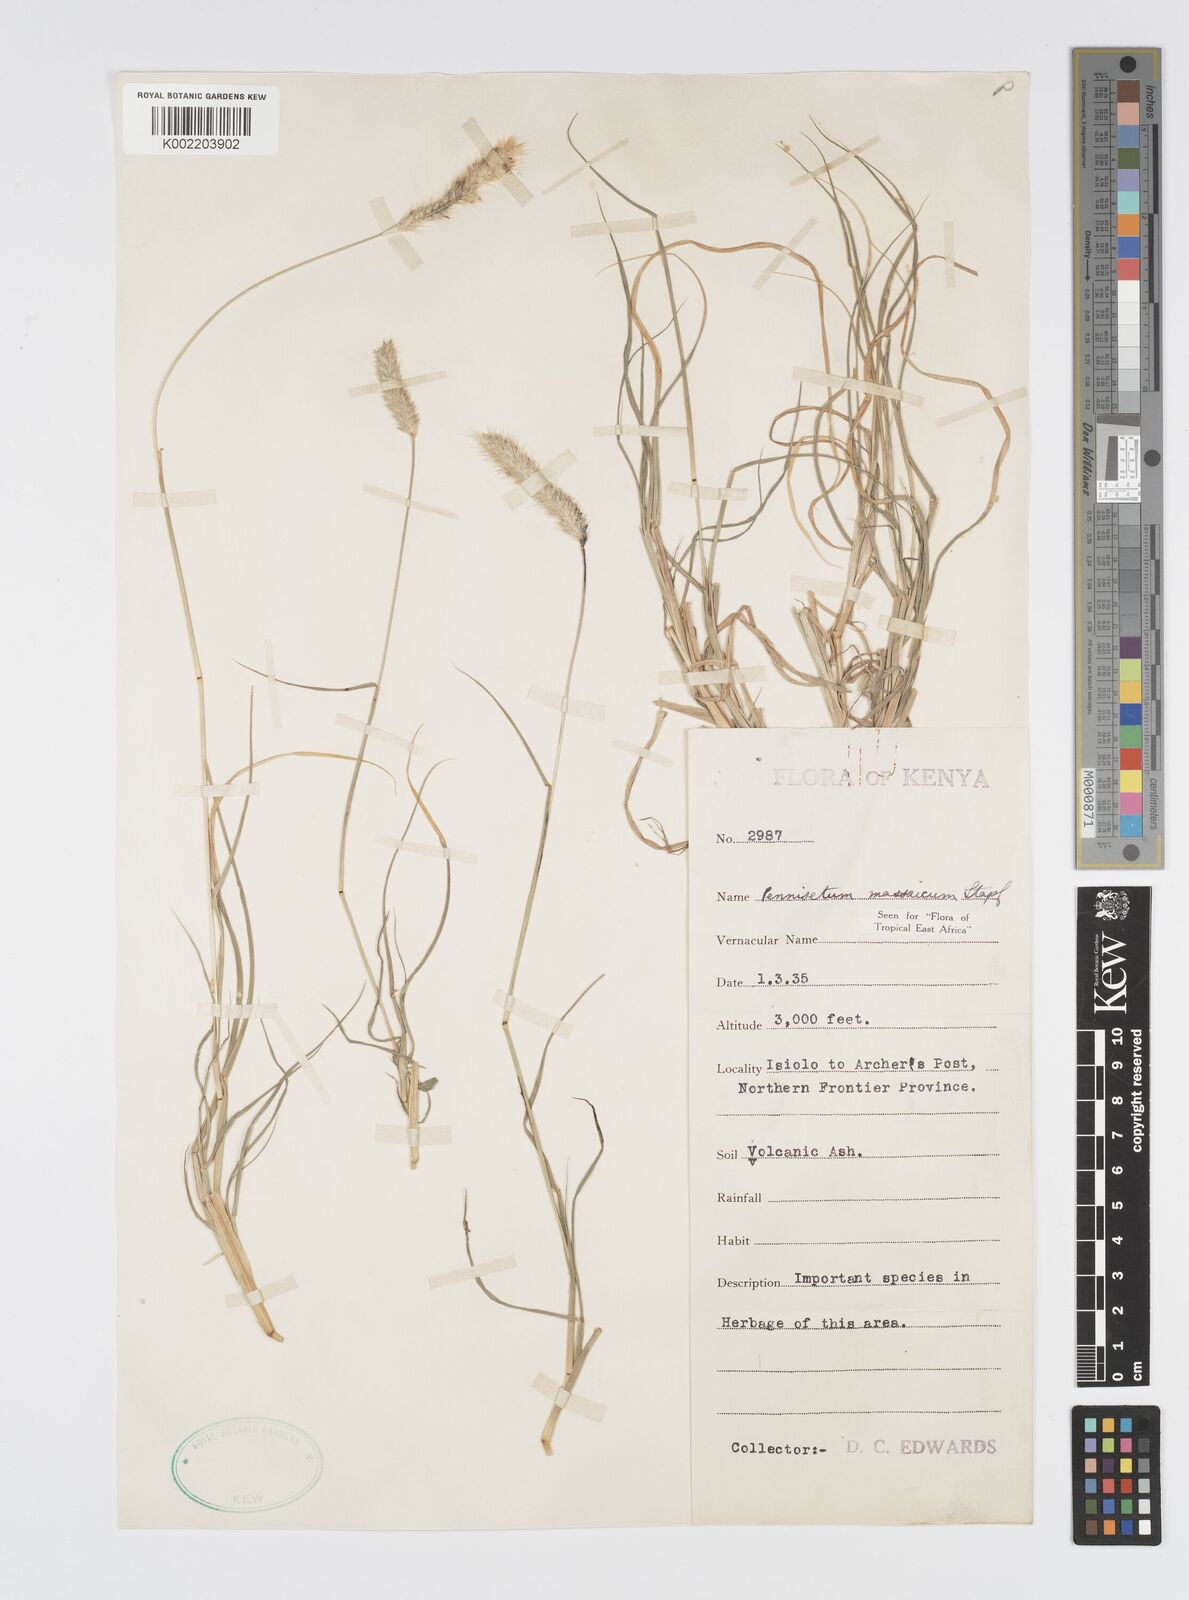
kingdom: Plantae
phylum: Tracheophyta
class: Liliopsida
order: Poales
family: Poaceae
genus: Cenchrus
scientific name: Cenchrus massaicus
